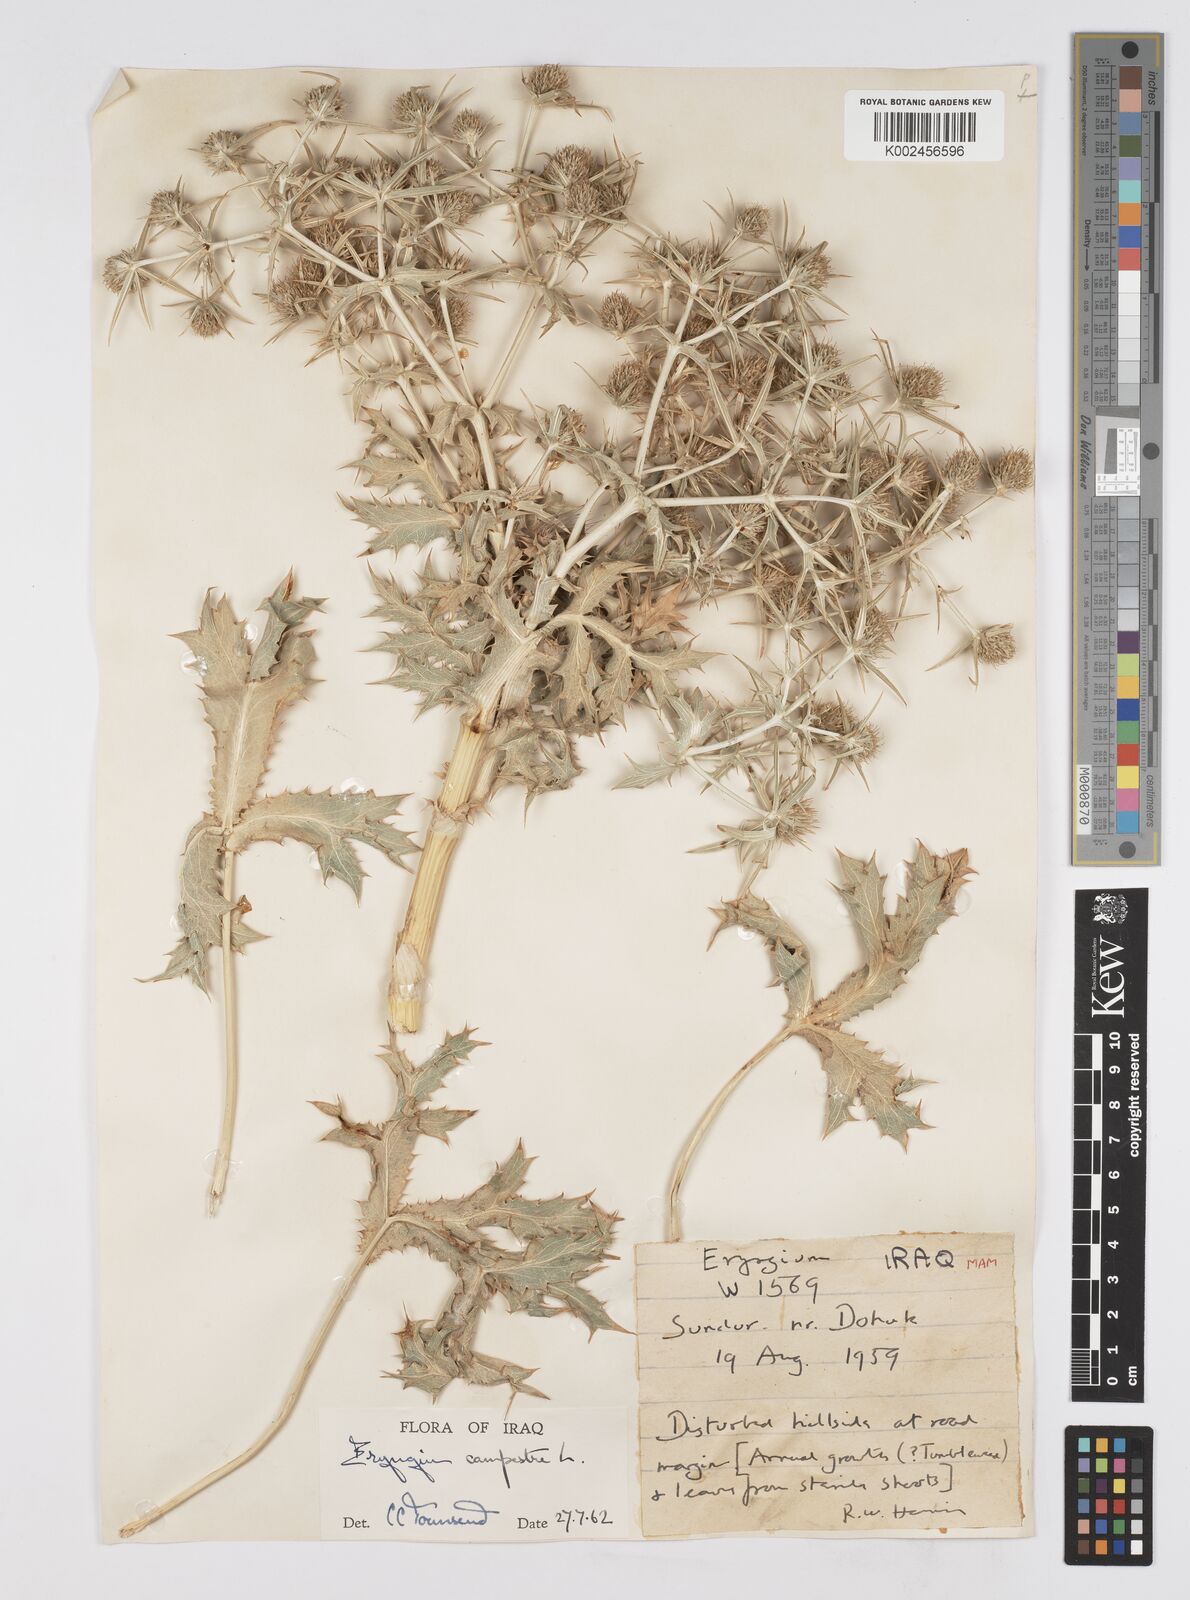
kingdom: Plantae
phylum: Tracheophyta
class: Magnoliopsida
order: Apiales
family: Apiaceae
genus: Eryngium
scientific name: Eryngium campestre
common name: Field eryngo
